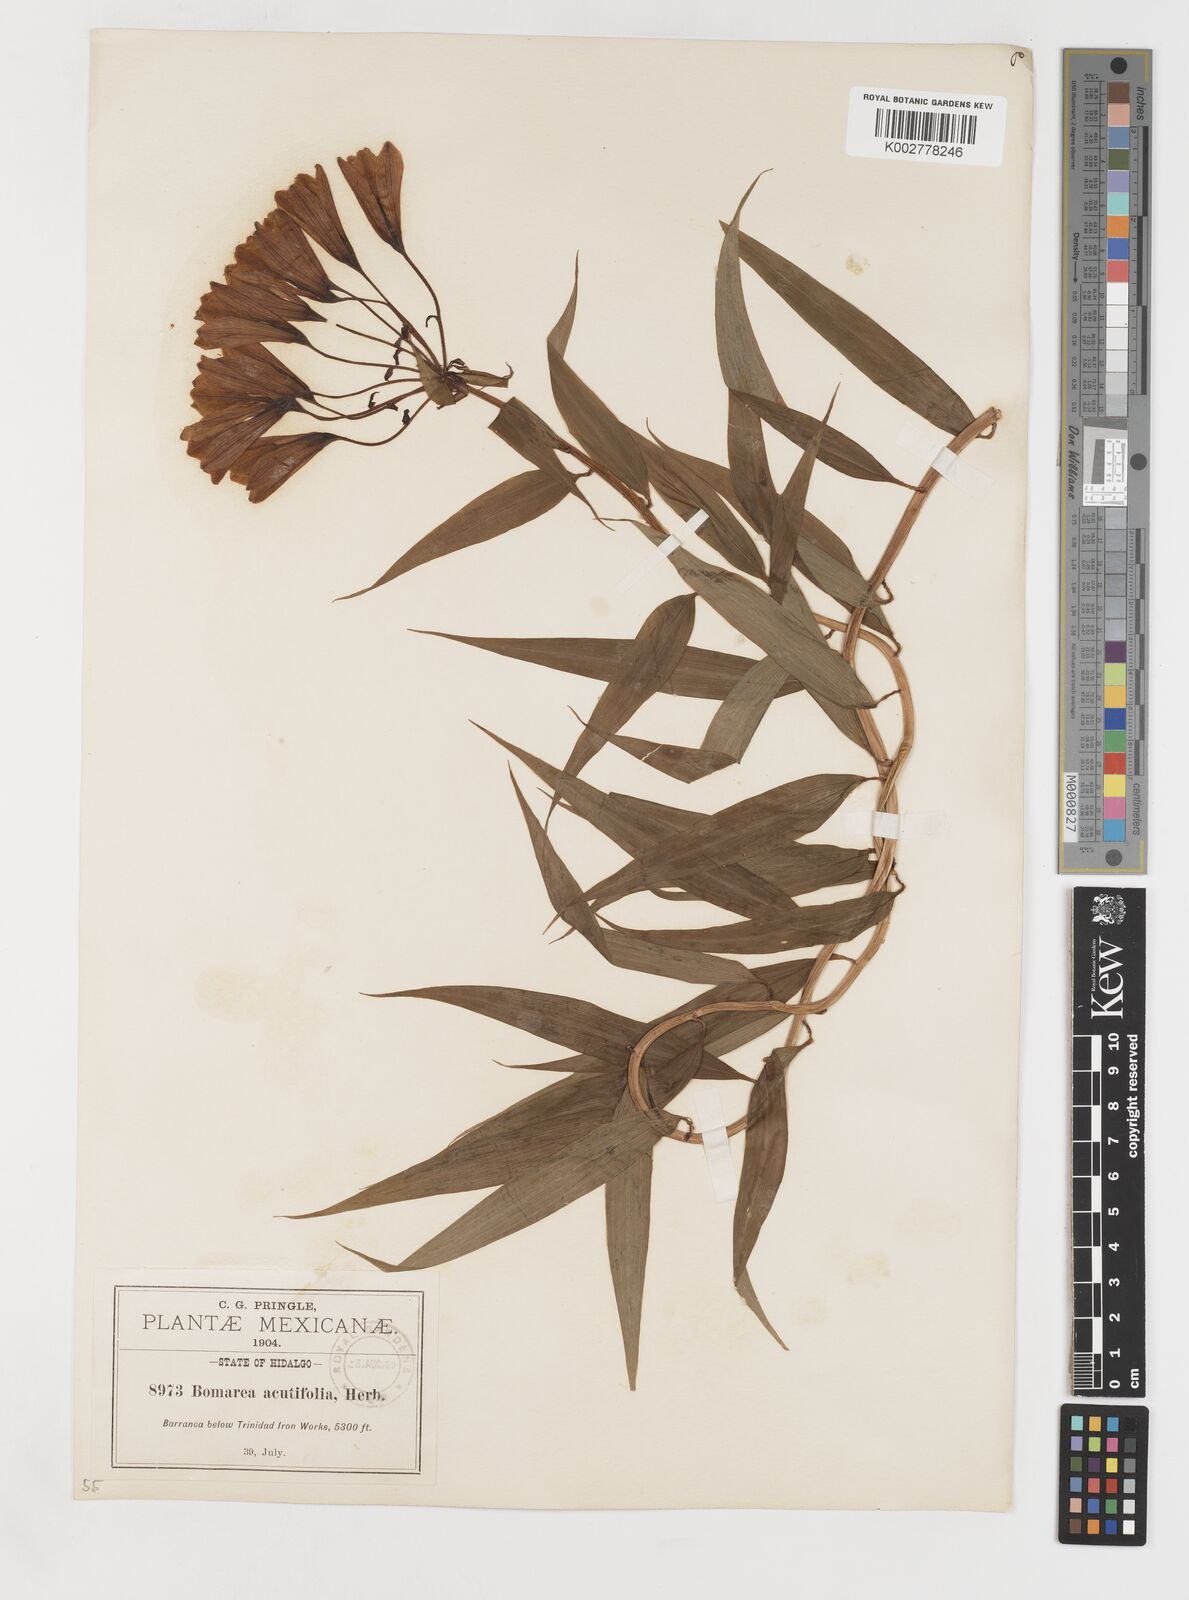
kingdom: Plantae
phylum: Tracheophyta
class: Liliopsida
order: Liliales
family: Alstroemeriaceae
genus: Bomarea
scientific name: Bomarea acutifolia
